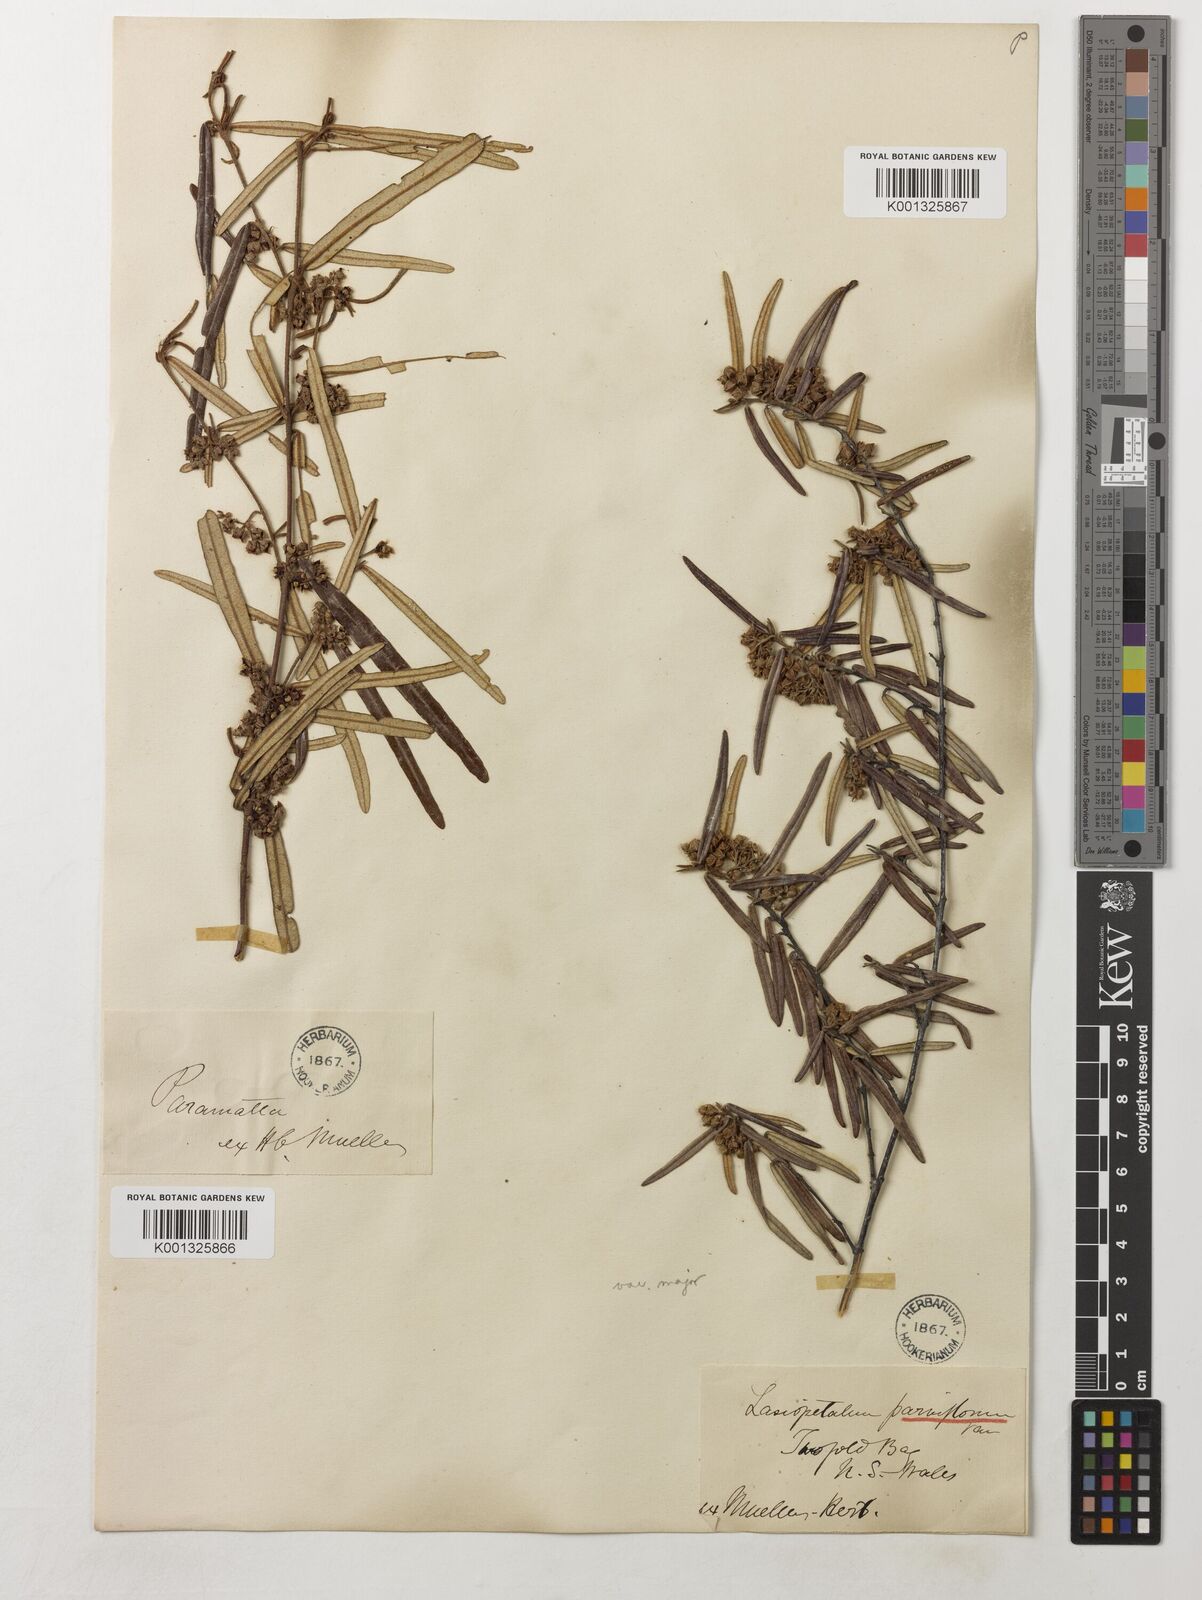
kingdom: Plantae
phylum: Tracheophyta
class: Magnoliopsida
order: Malvales
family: Malvaceae
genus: Lasiopetalum
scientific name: Lasiopetalum parviflorum
